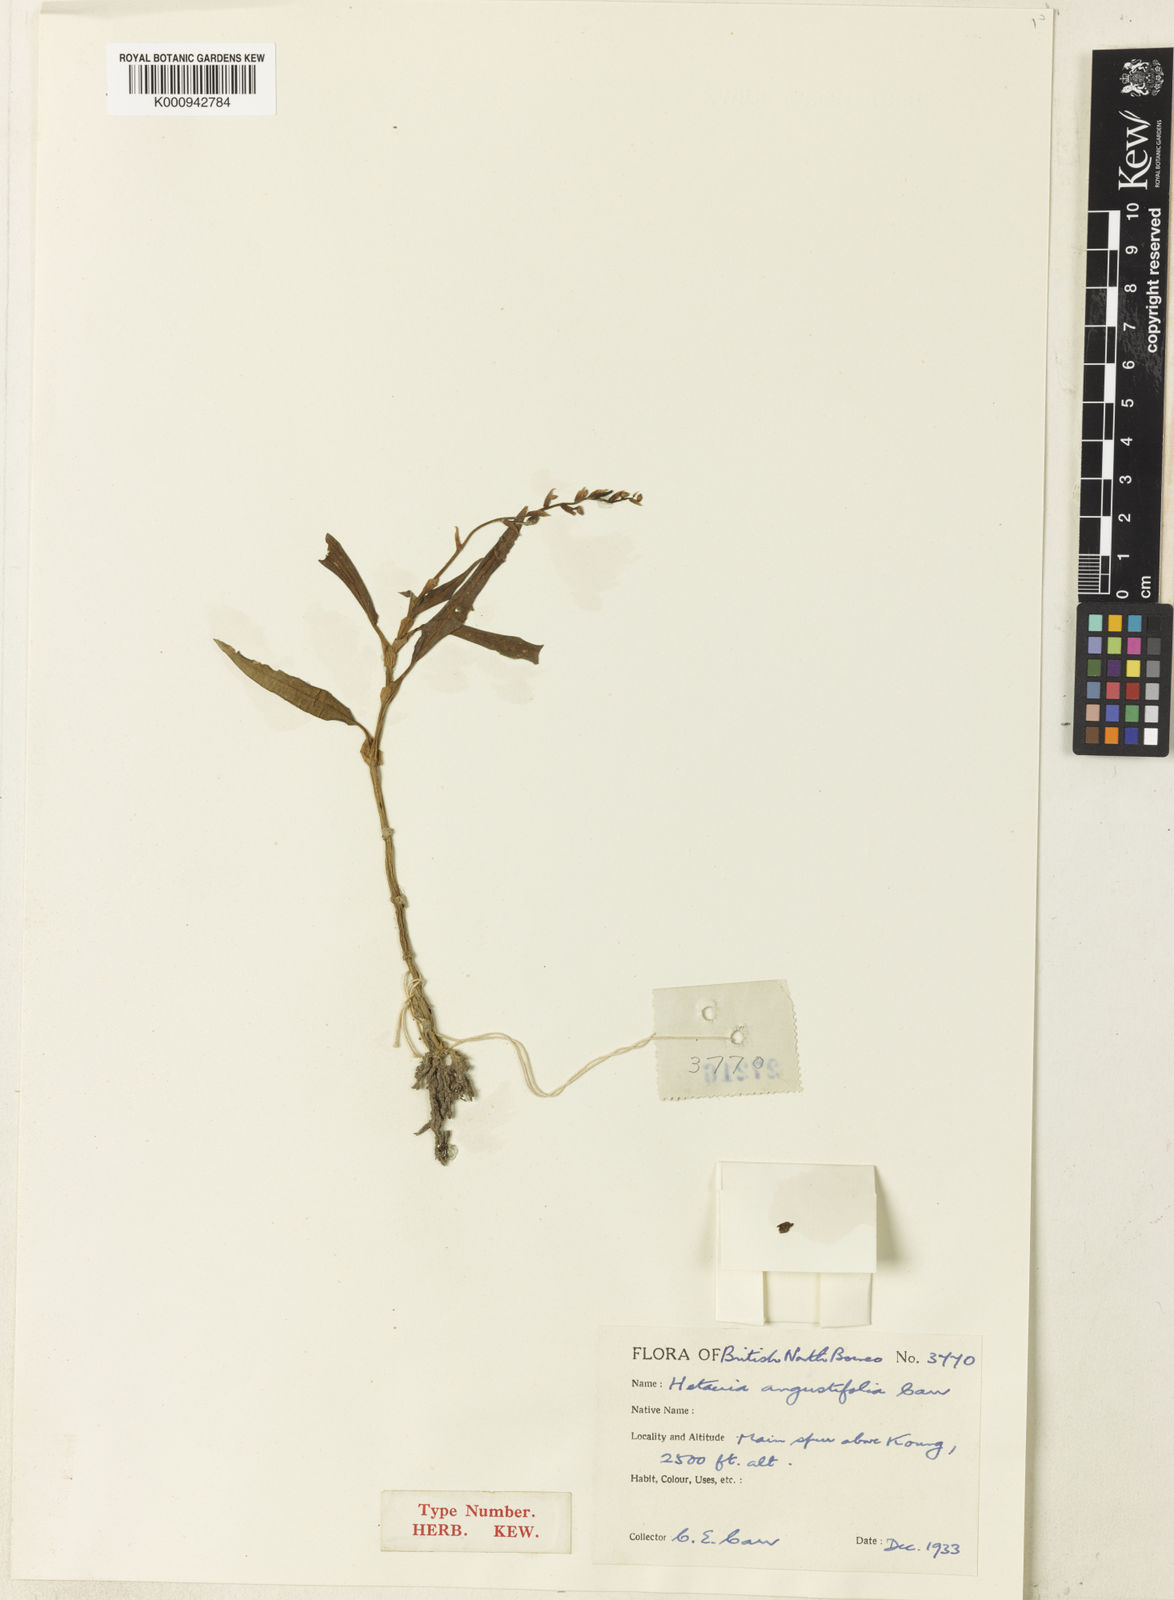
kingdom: Plantae
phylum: Tracheophyta
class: Liliopsida
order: Asparagales
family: Orchidaceae
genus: Rhomboda
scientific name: Rhomboda pauciflora
